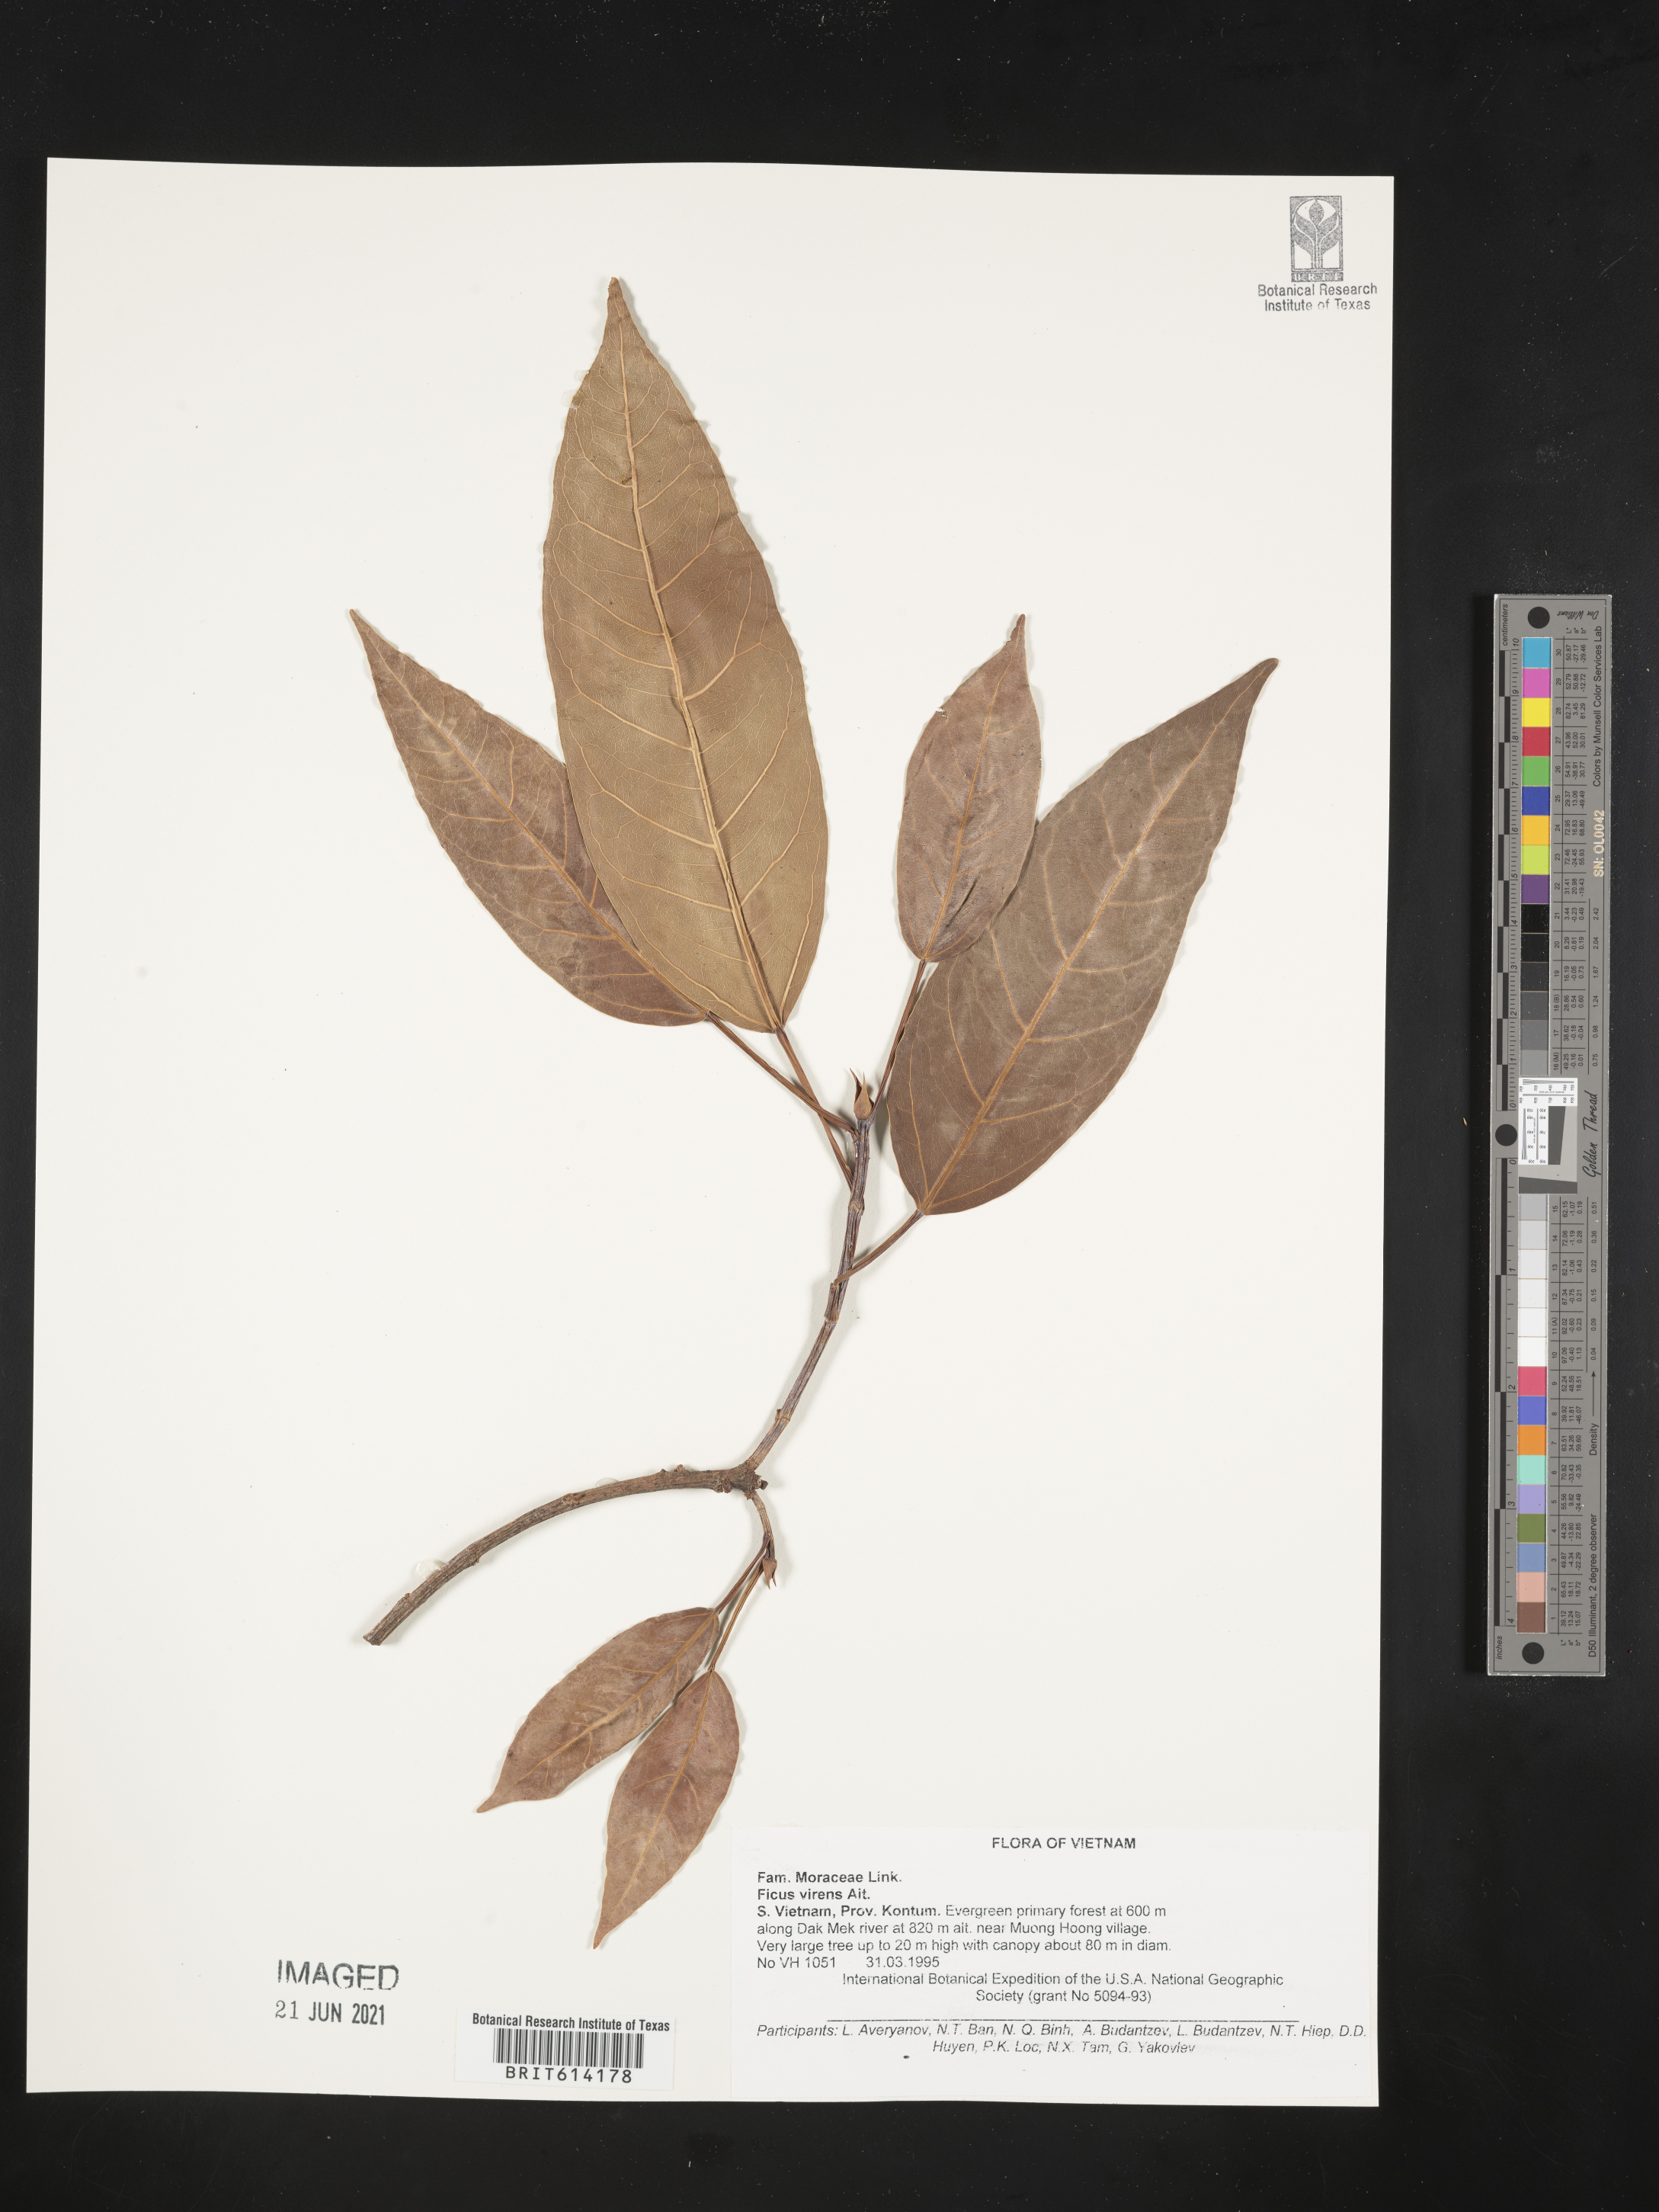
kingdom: Plantae
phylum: Tracheophyta
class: Magnoliopsida
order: Rosales
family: Moraceae
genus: Ficus
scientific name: Ficus virens
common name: Spotted fig
